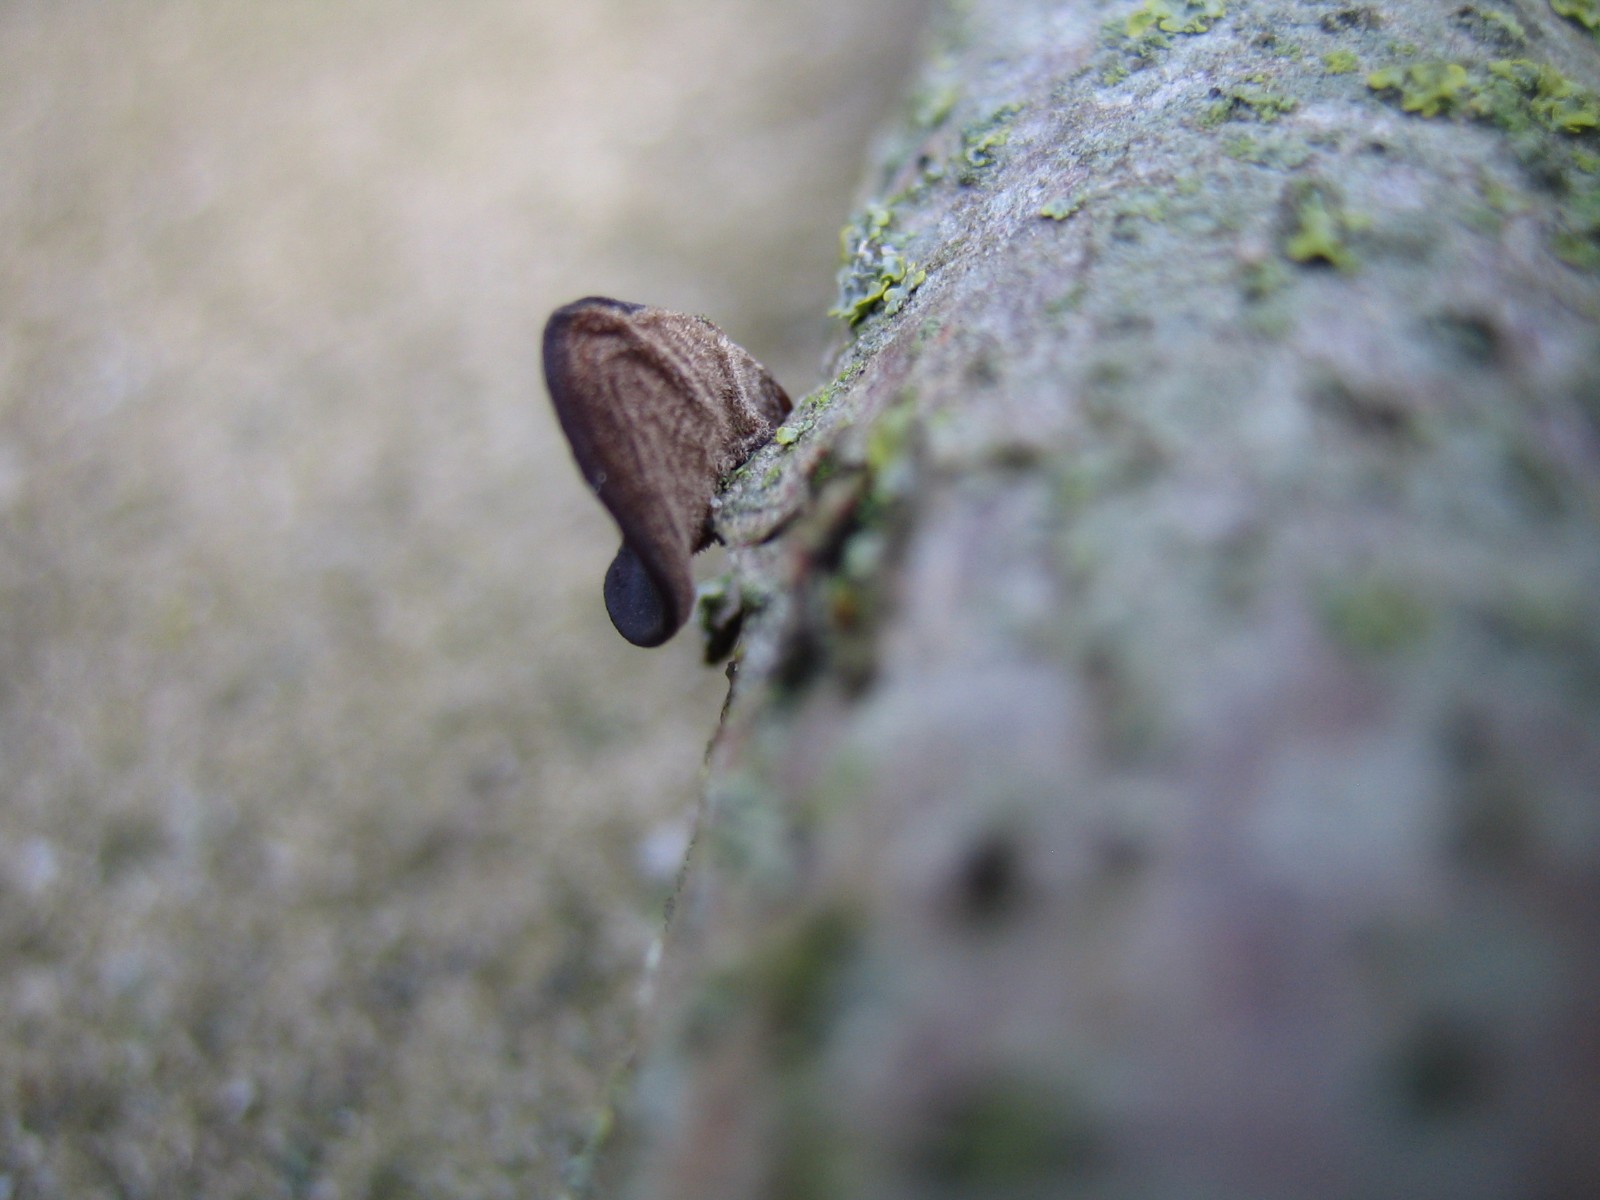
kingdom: Fungi
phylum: Basidiomycota
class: Agaricomycetes
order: Auriculariales
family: Auriculariaceae
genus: Auricularia
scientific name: Auricularia auricula-judae
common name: almindelig judasøre
